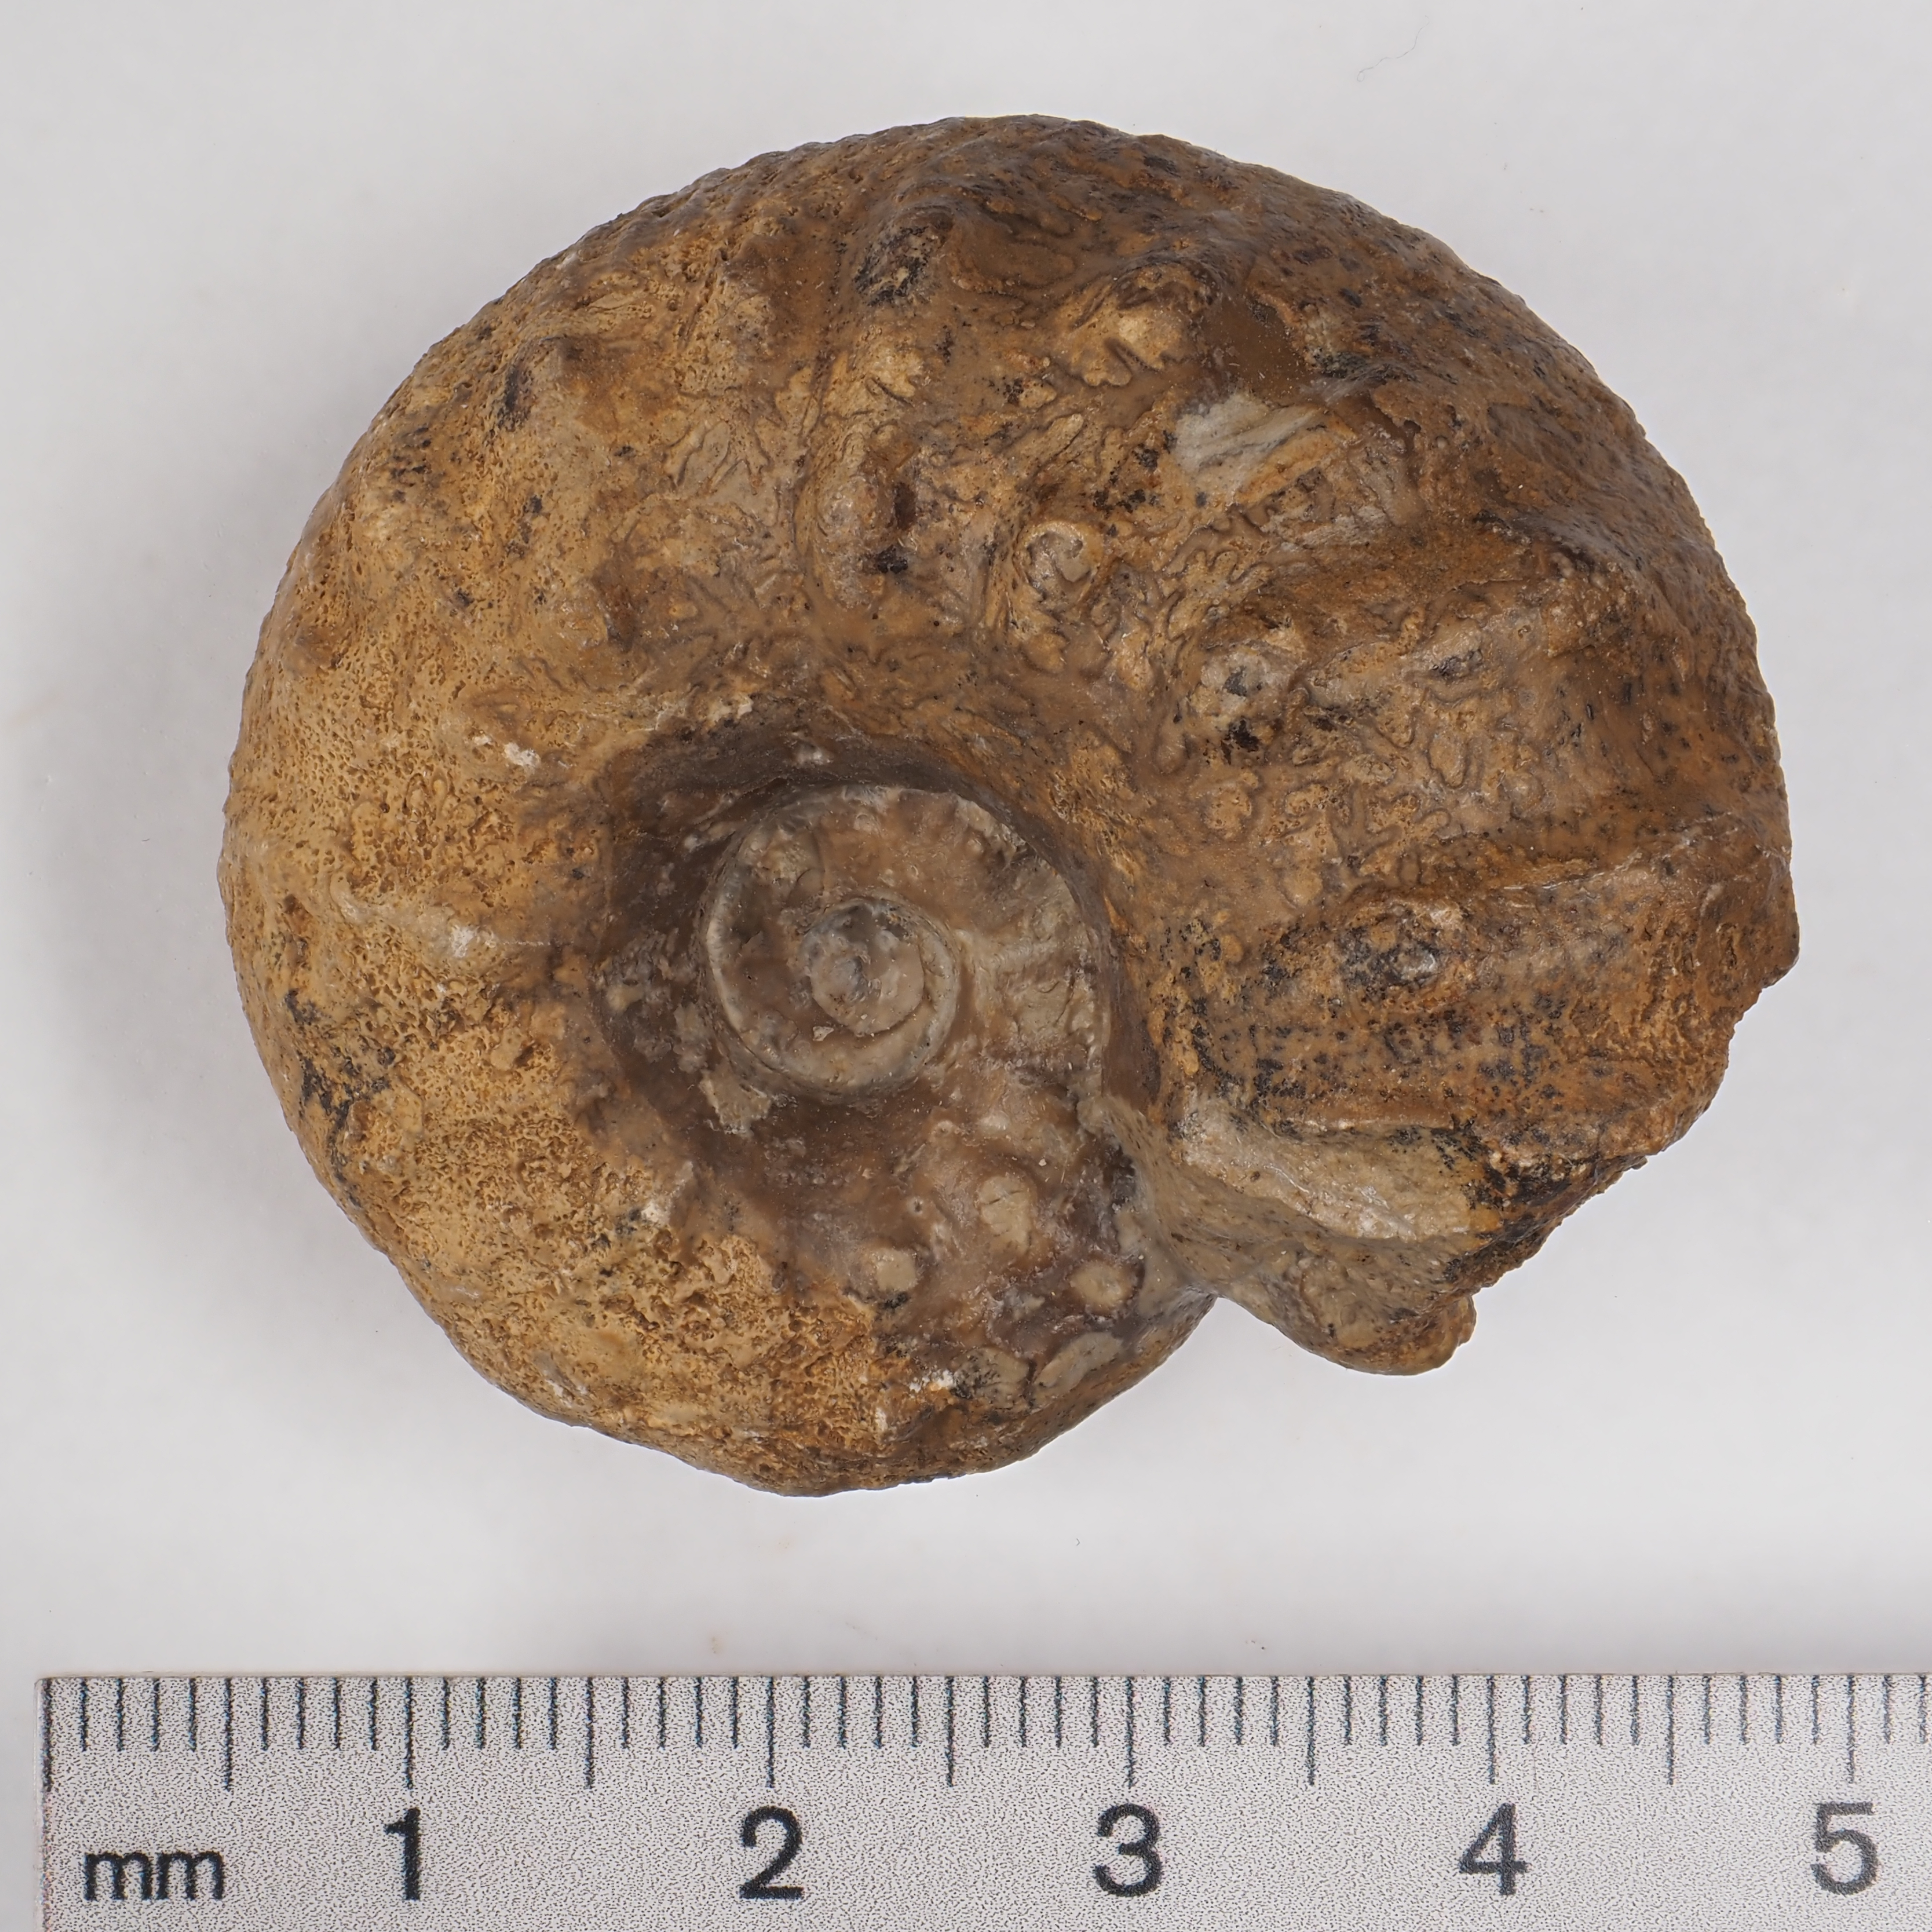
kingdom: Animalia
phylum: Mollusca
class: Cephalopoda
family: Liparoceratidae
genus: Liparoceras
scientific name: Liparoceras cheltiense
